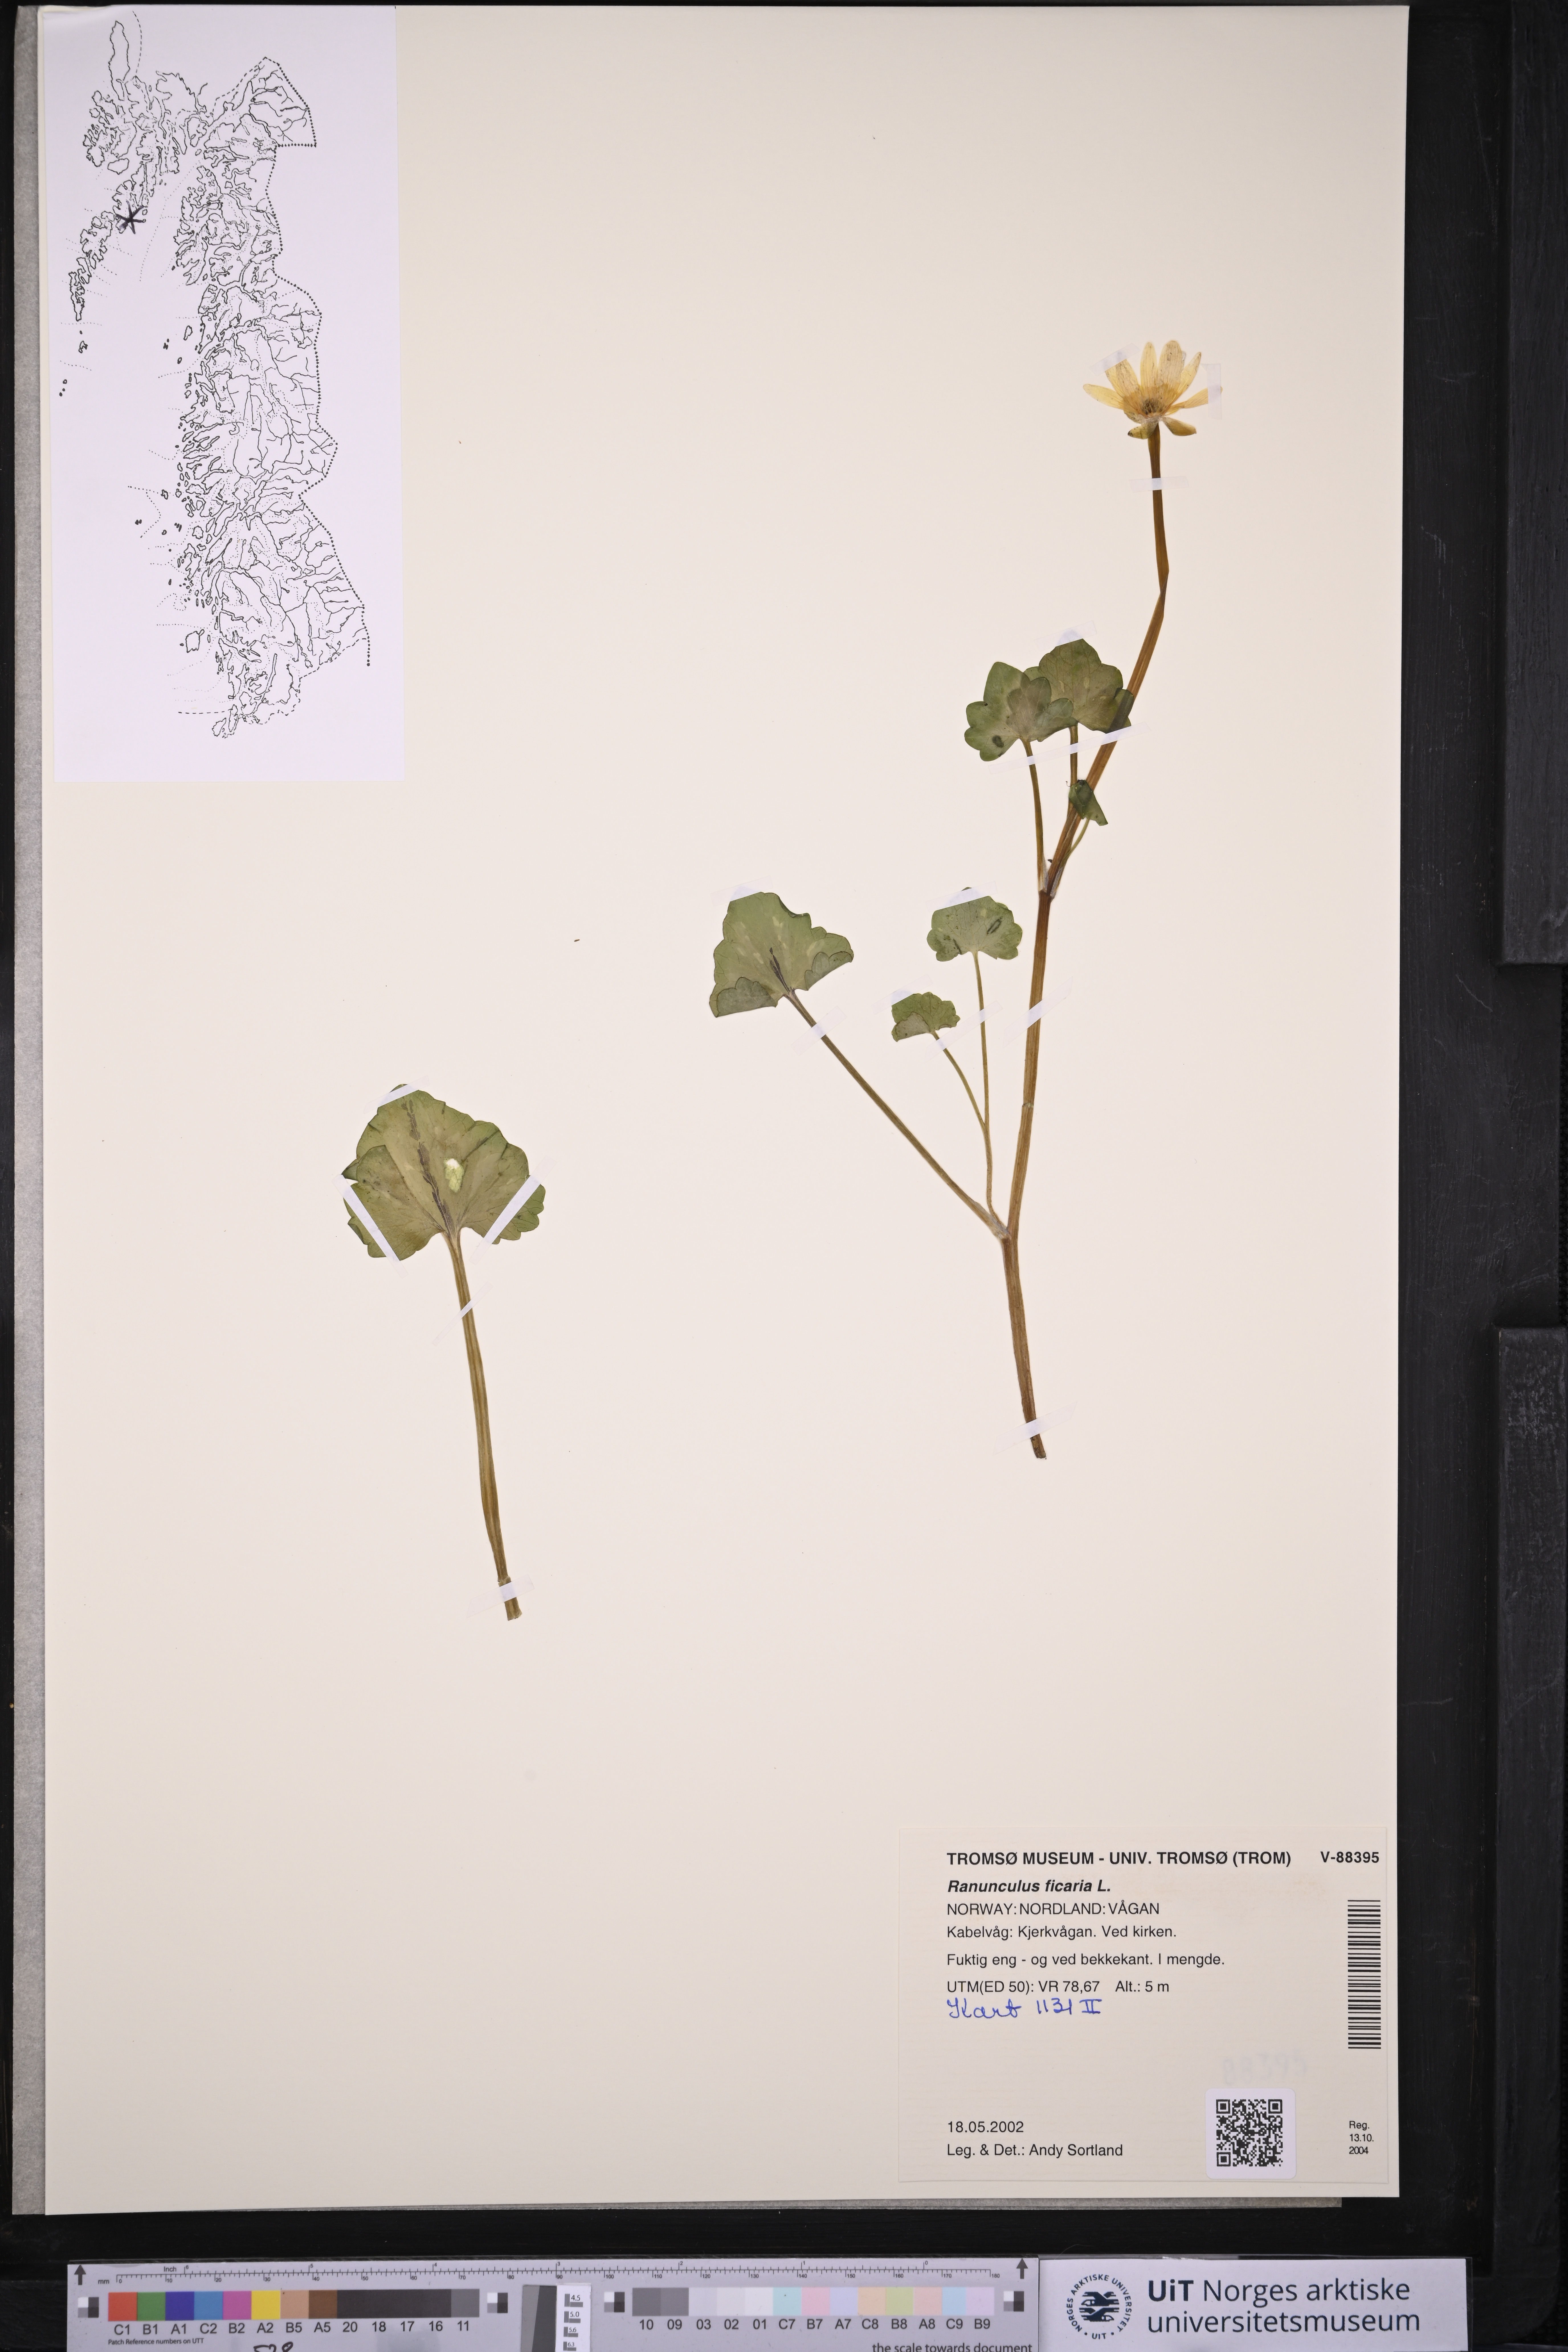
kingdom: Plantae
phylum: Tracheophyta
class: Magnoliopsida
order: Ranunculales
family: Ranunculaceae
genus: Ficaria
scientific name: Ficaria verna
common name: Lesser celandine
